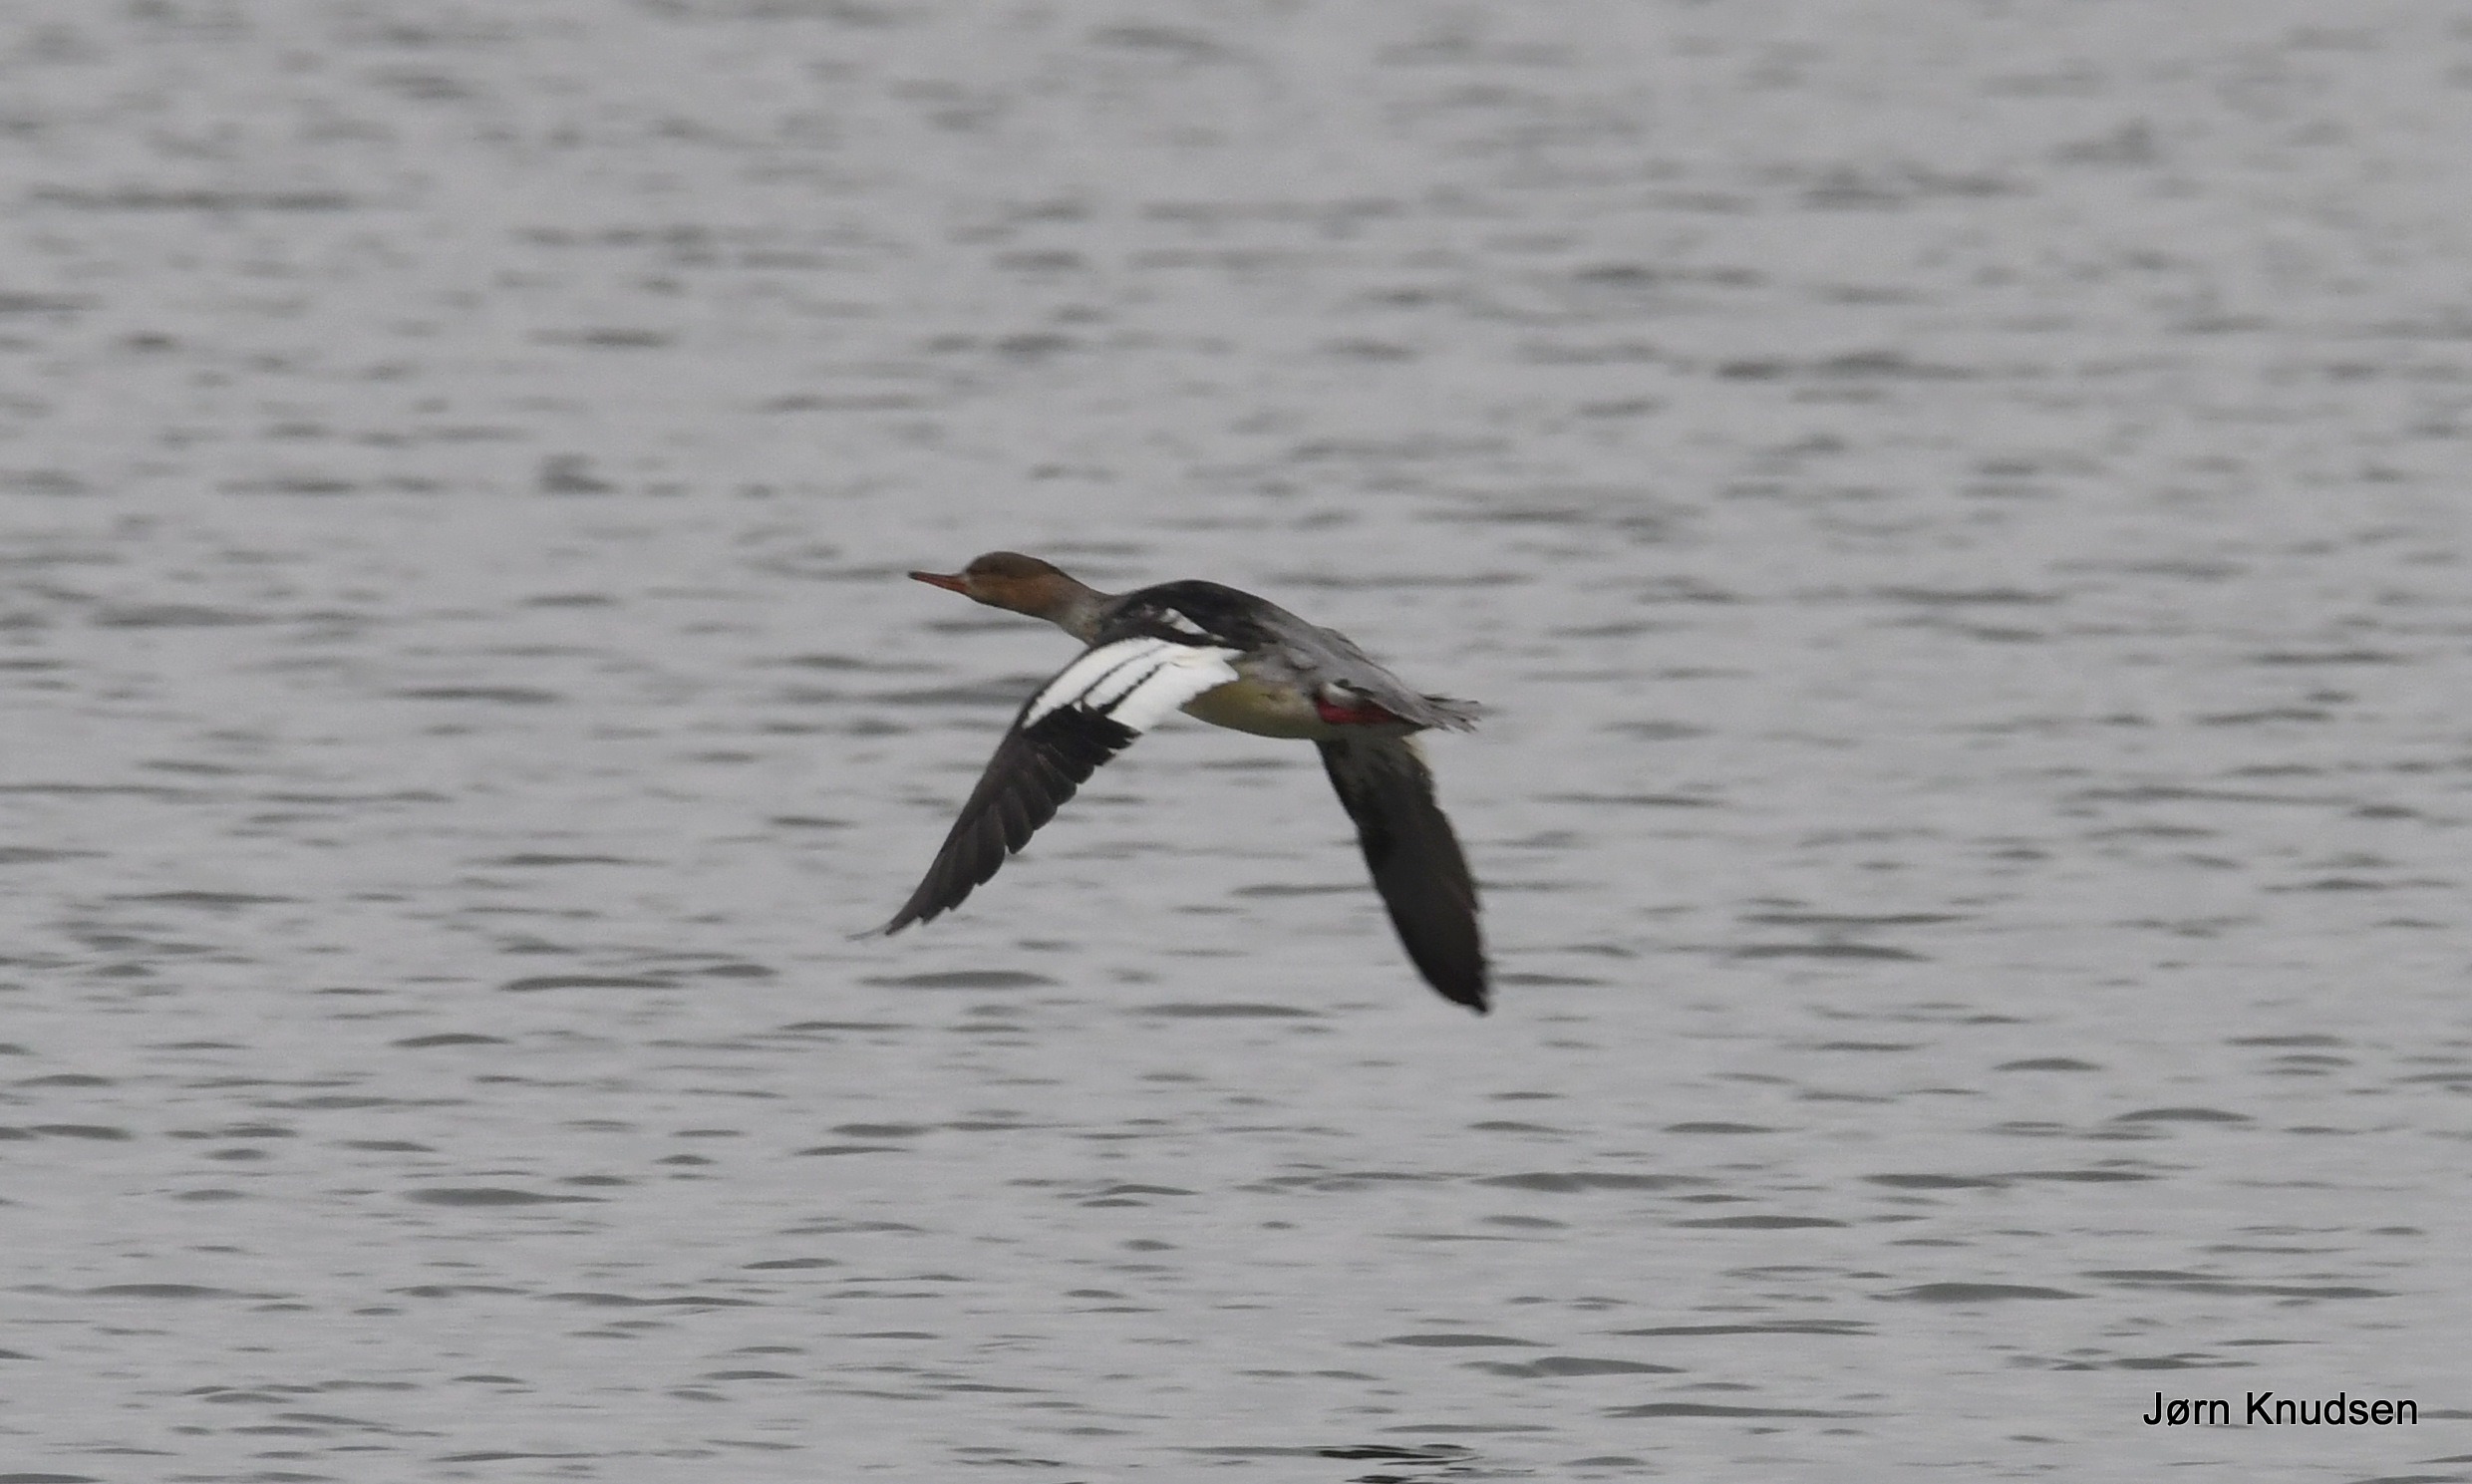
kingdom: Animalia
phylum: Chordata
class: Aves
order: Anseriformes
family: Anatidae
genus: Mergus
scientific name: Mergus serrator
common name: Toppet skallesluger
